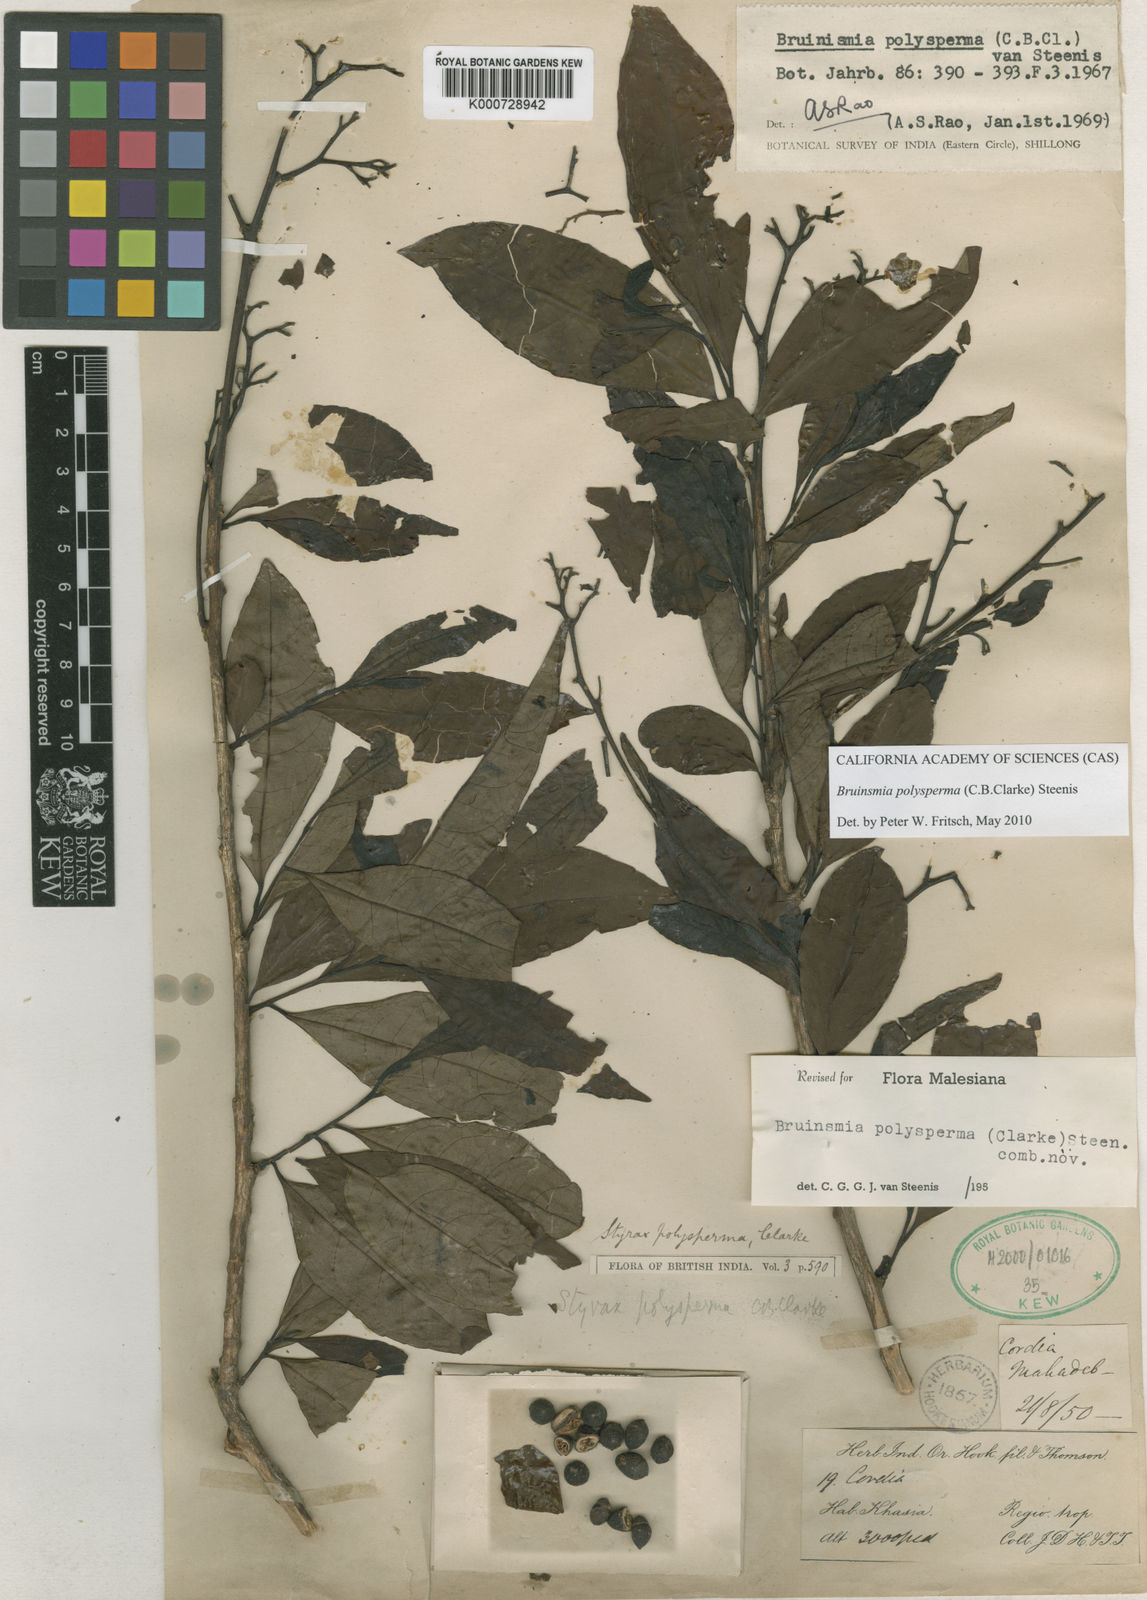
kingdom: Plantae
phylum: Tracheophyta
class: Magnoliopsida
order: Ericales
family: Styracaceae
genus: Bruinsmia
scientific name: Bruinsmia polysperma
